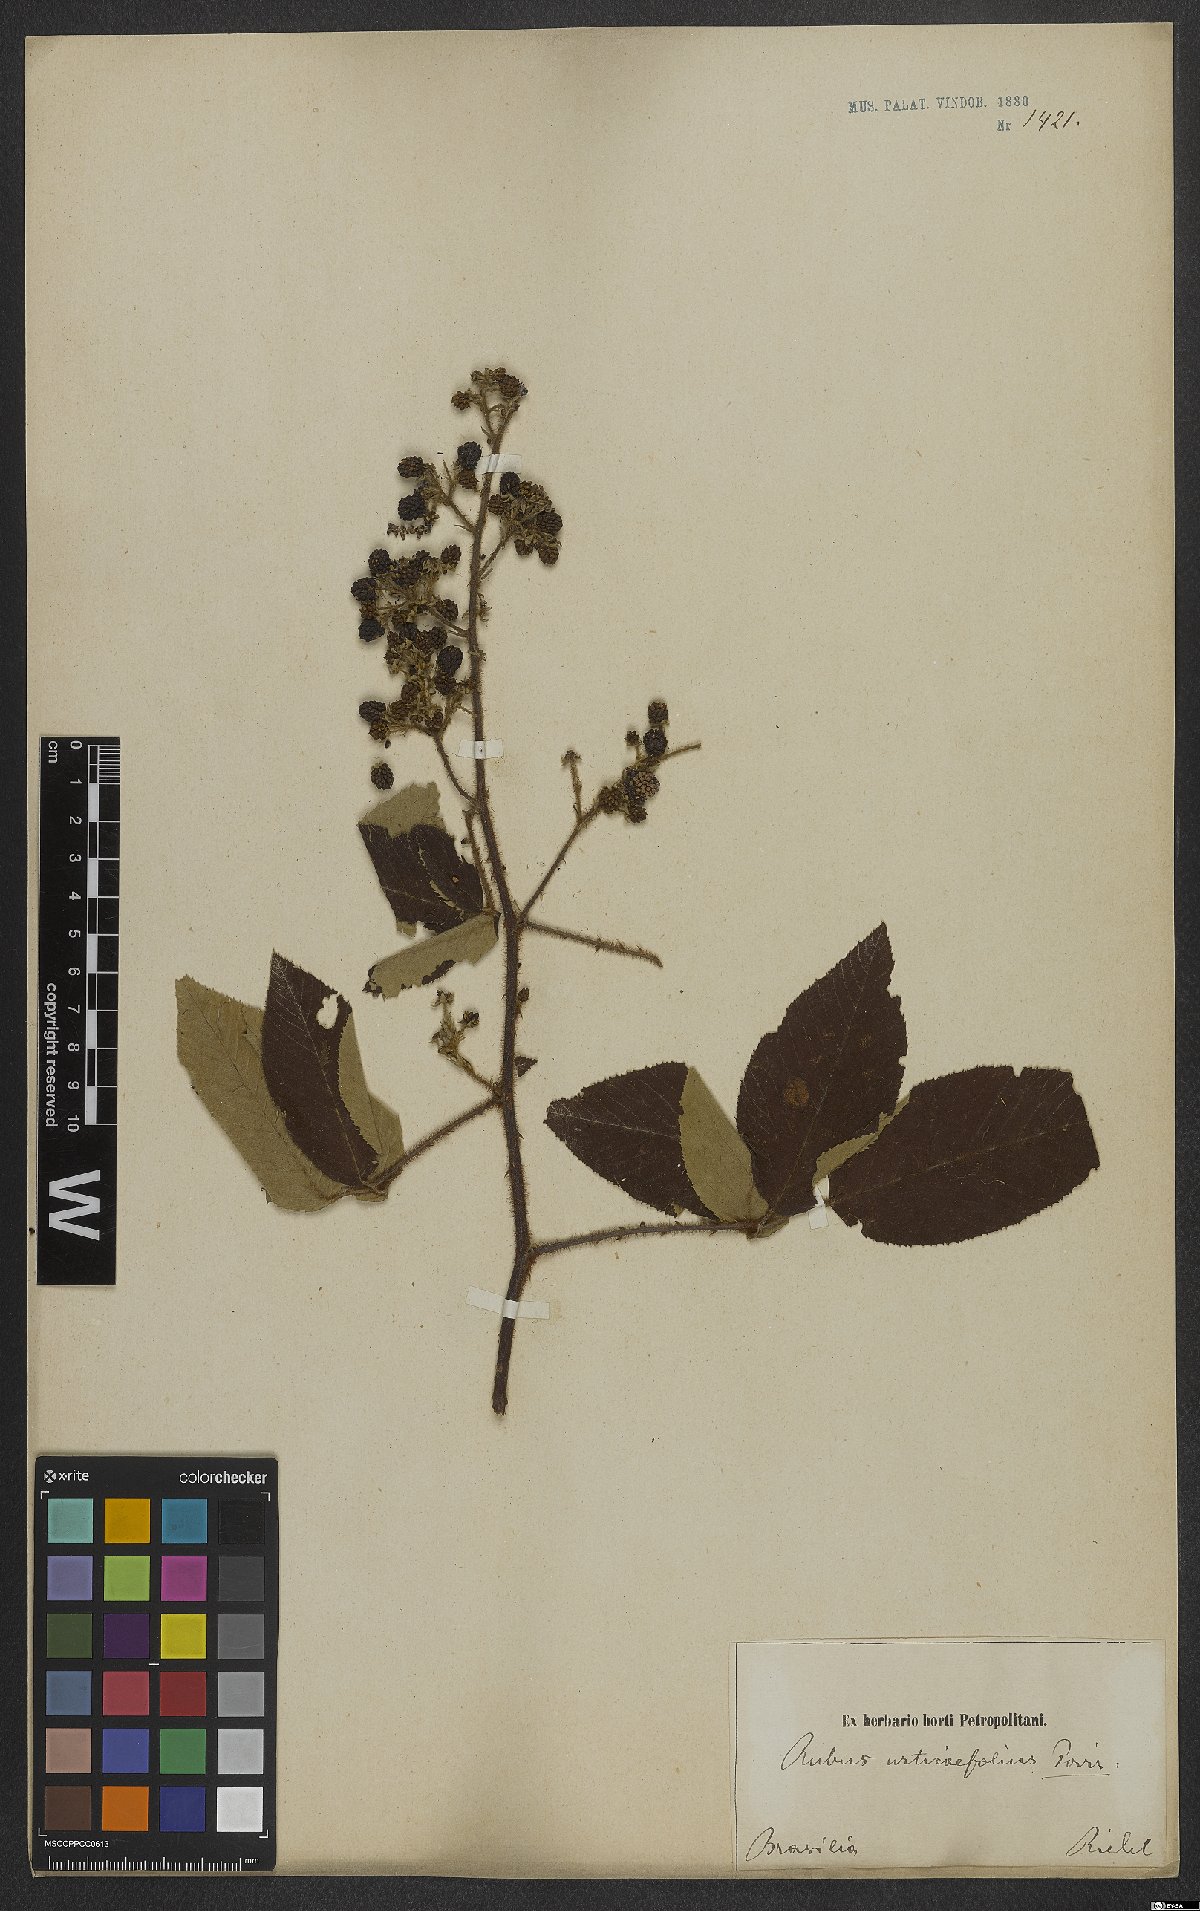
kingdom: Plantae
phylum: Tracheophyta
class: Magnoliopsida
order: Rosales
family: Rosaceae
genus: Rubus
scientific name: Rubus urticifolius
